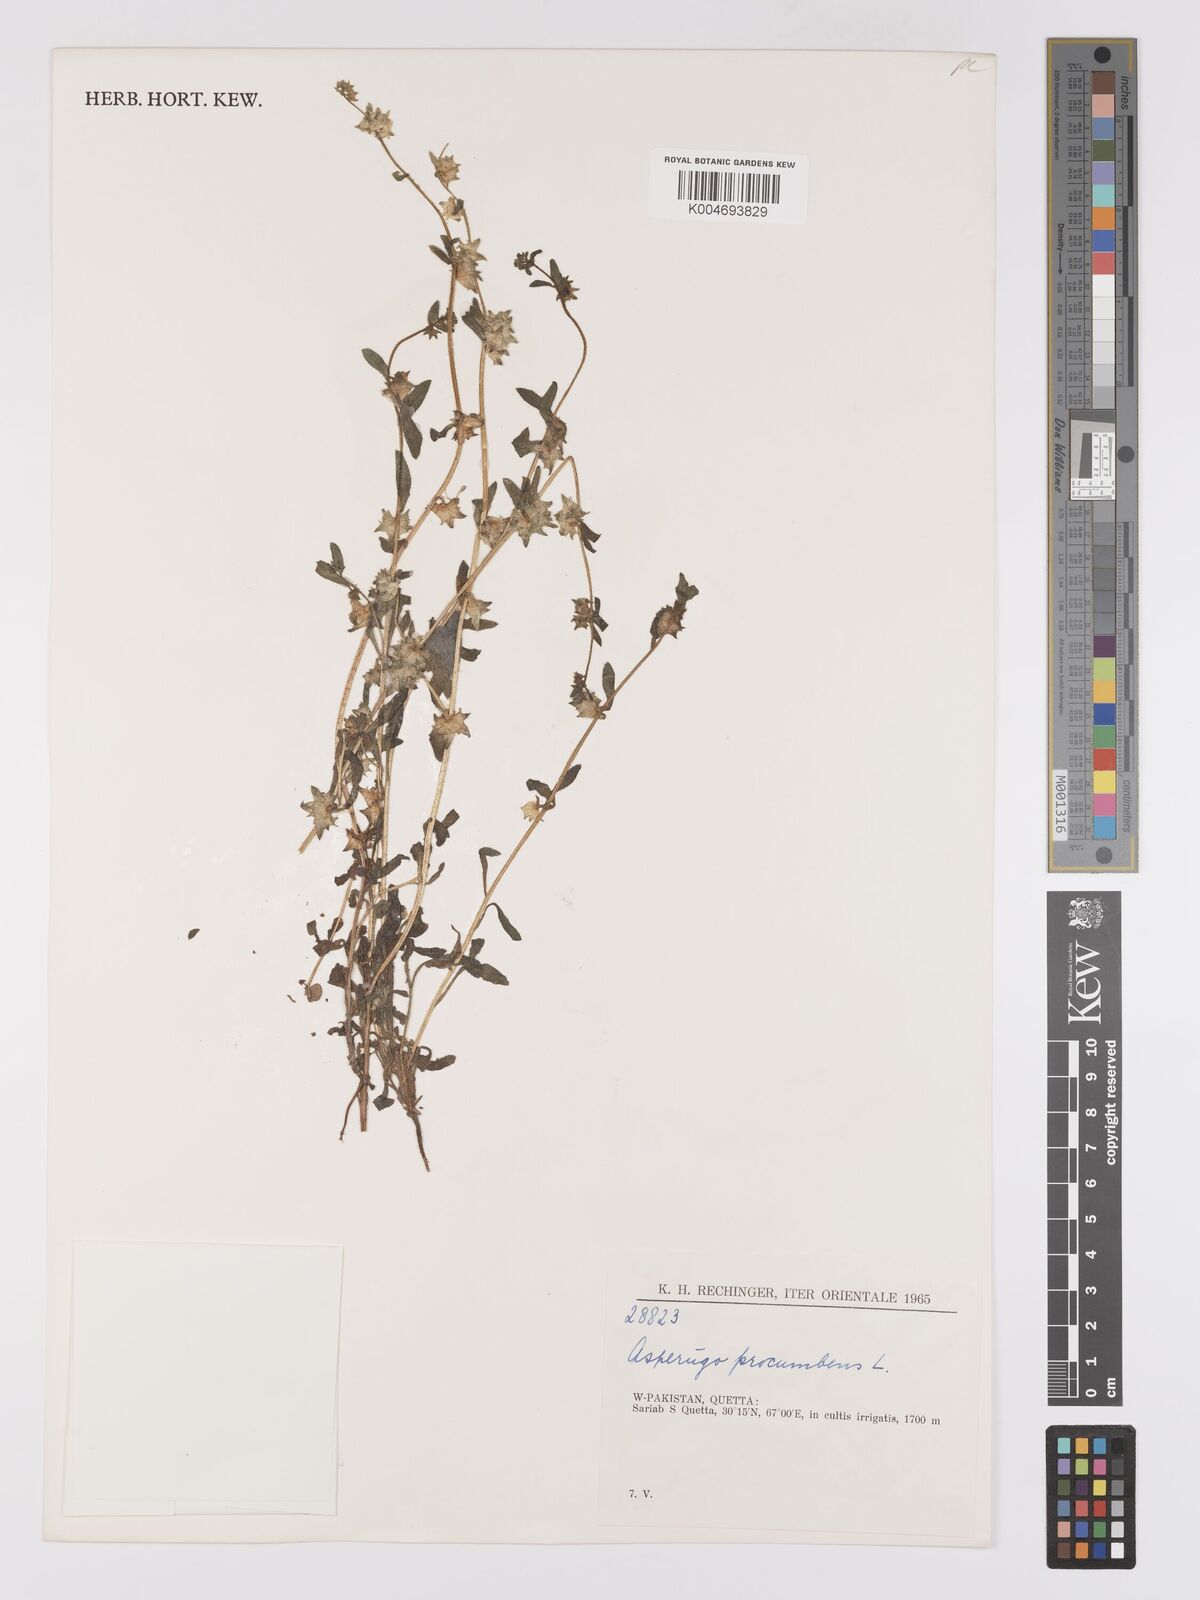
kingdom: Plantae
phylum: Tracheophyta
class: Magnoliopsida
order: Boraginales
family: Boraginaceae
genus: Asperugo
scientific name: Asperugo procumbens
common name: Madwort
